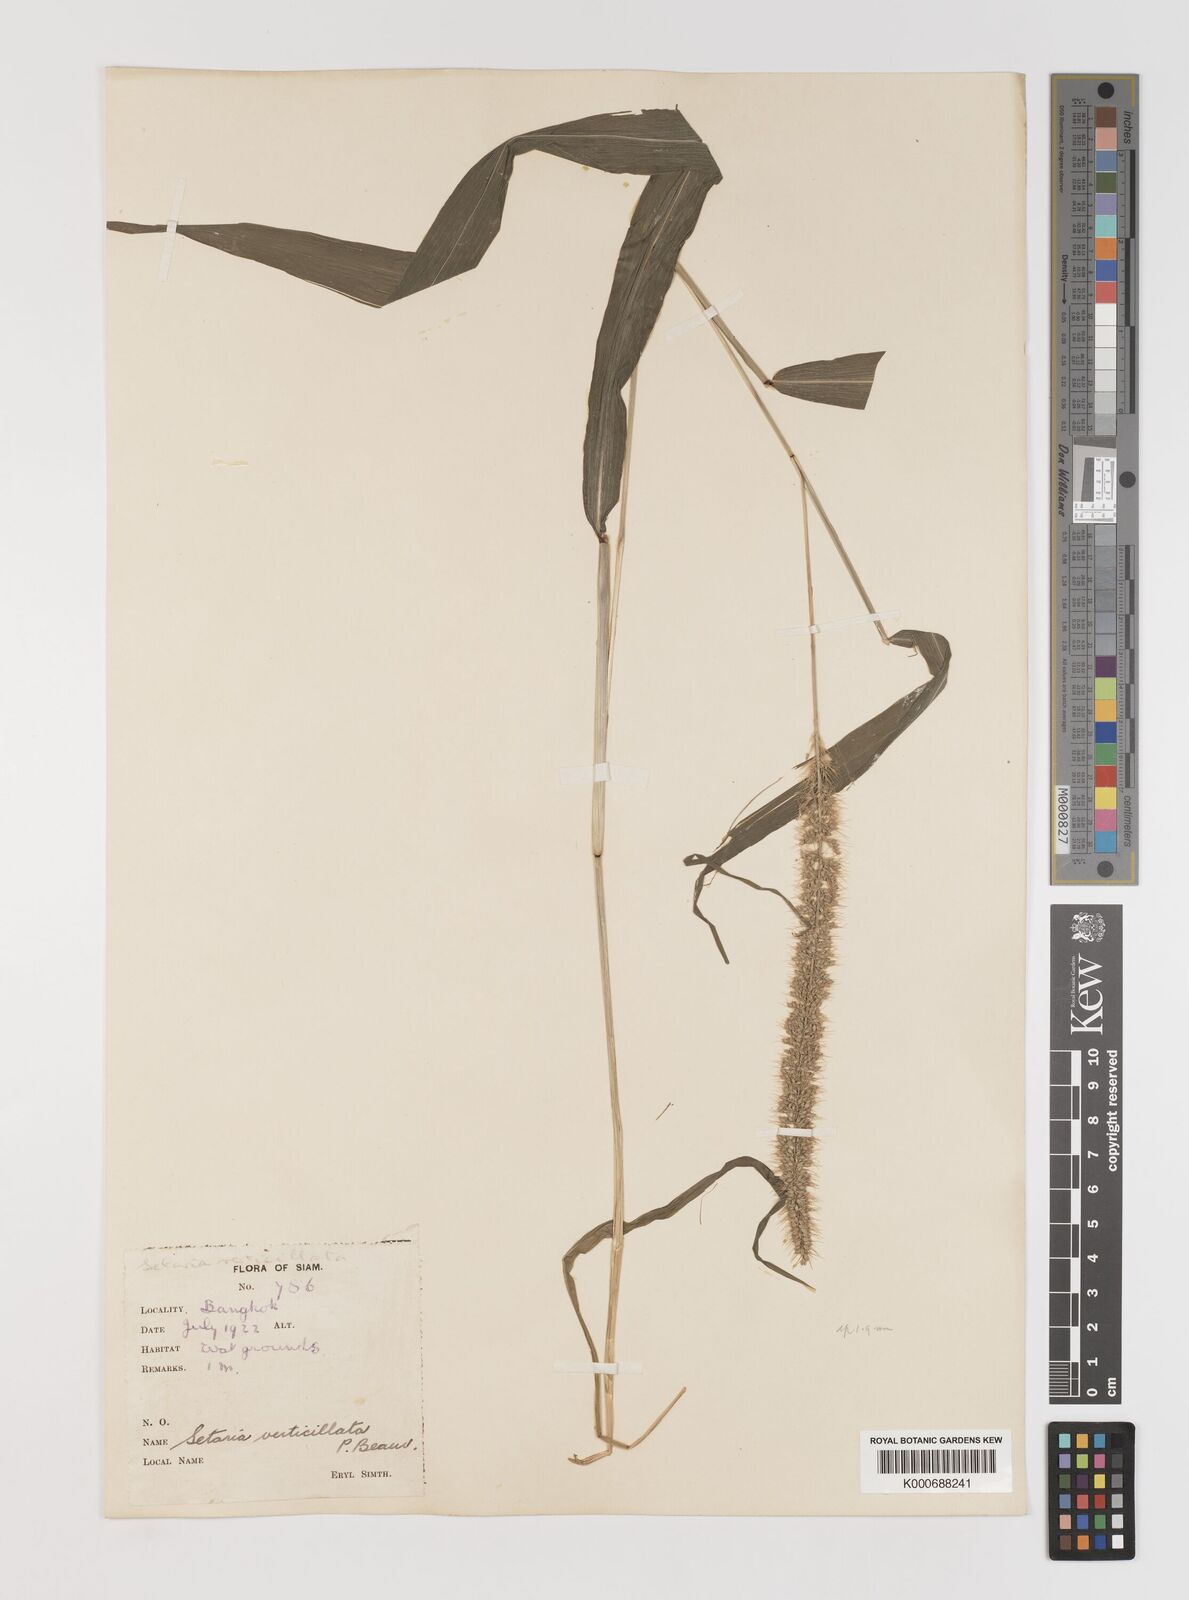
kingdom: Plantae
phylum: Tracheophyta
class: Liliopsida
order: Poales
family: Poaceae
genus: Setaria
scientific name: Setaria verticillata
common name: Hooked bristlegrass
